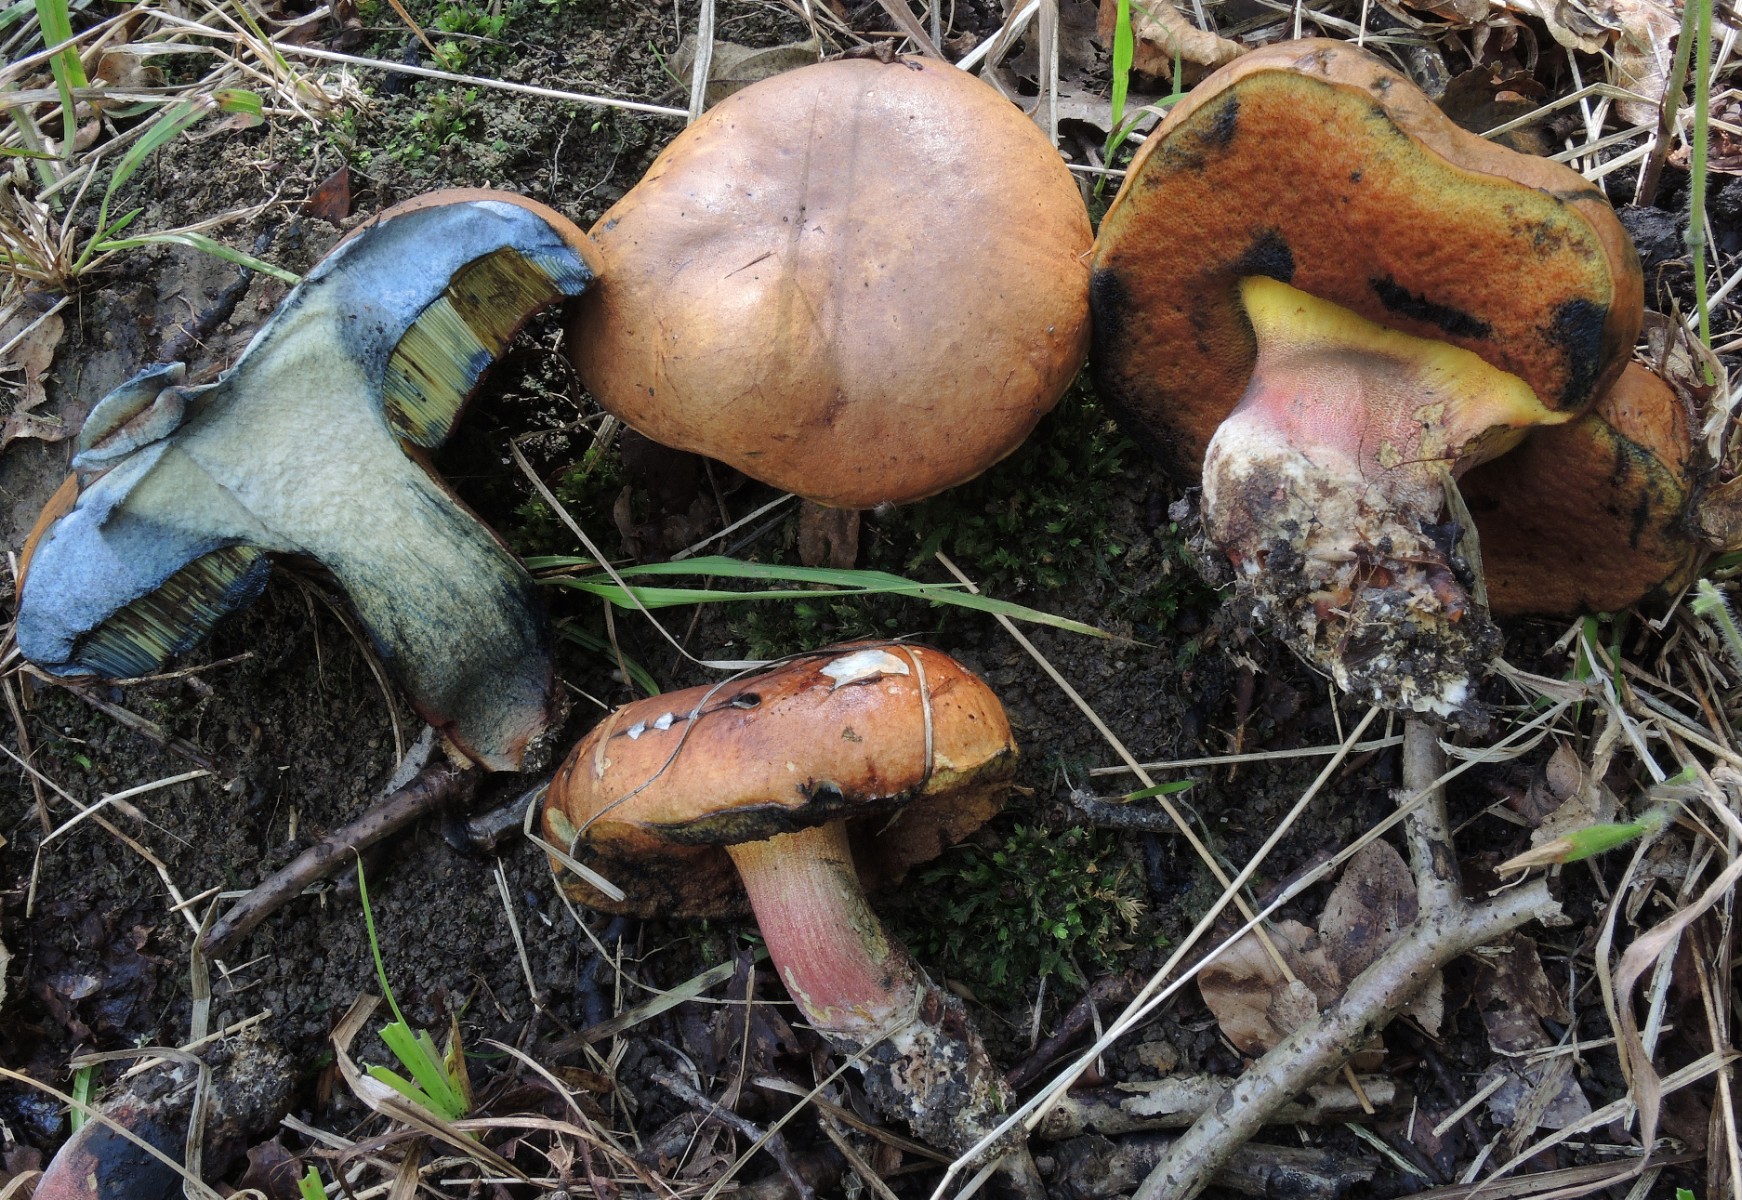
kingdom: Fungi
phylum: Basidiomycota
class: Agaricomycetes
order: Boletales
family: Boletaceae
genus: Neoboletus
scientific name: Neoboletus xanthopus
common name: finprikket indigorørhat
